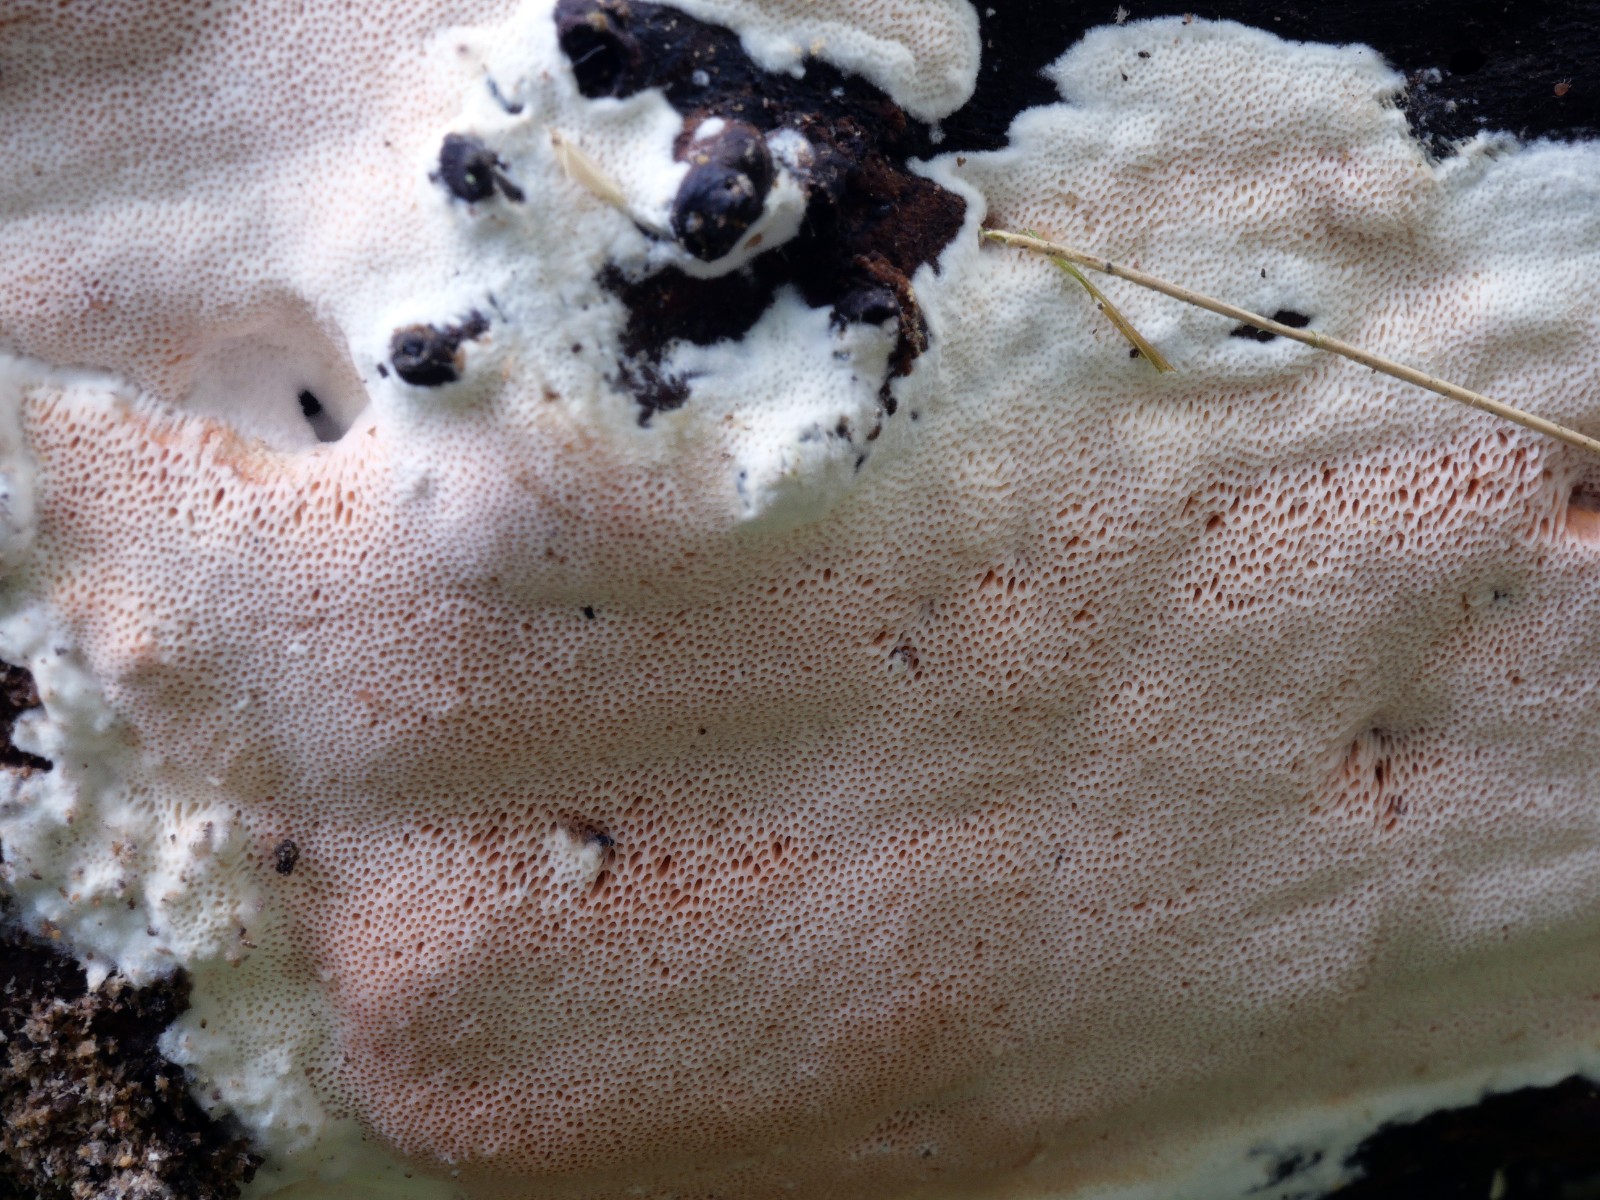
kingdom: Fungi
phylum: Basidiomycota
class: Agaricomycetes
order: Polyporales
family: Irpicaceae
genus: Ceriporia
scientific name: Ceriporia mellita
